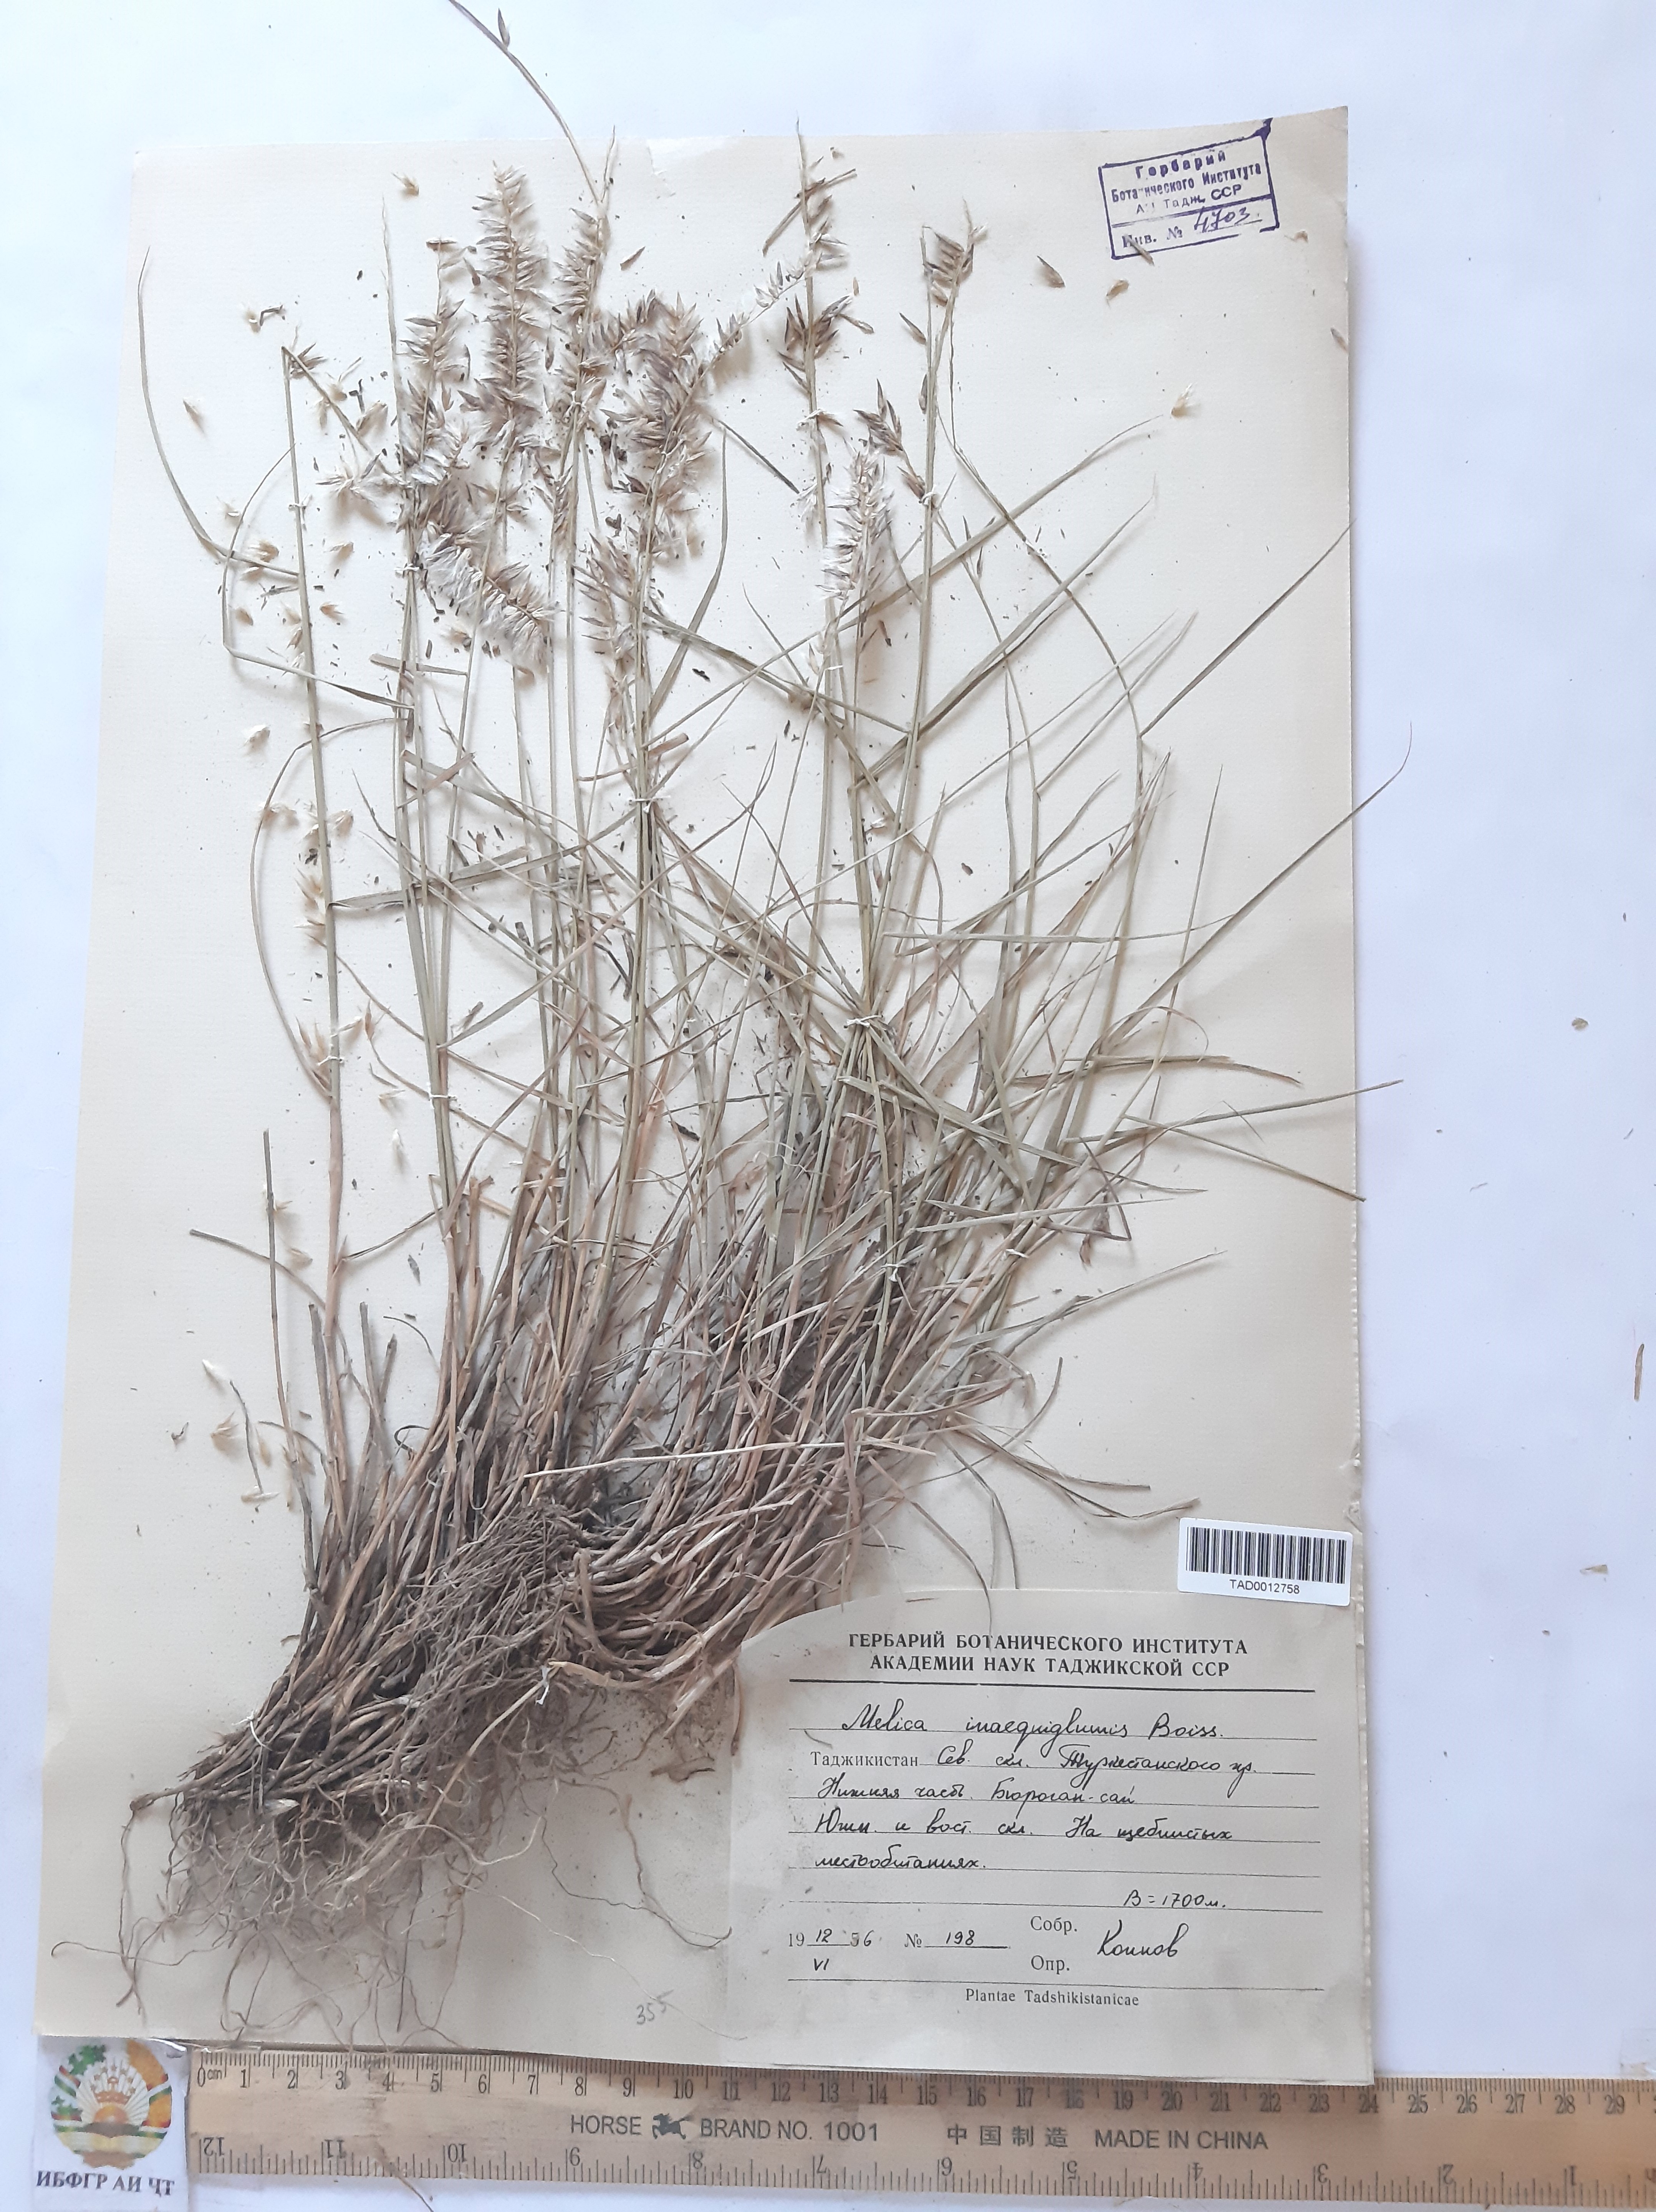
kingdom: Plantae
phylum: Tracheophyta
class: Liliopsida
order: Poales
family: Poaceae
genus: Melica
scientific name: Melica persica
